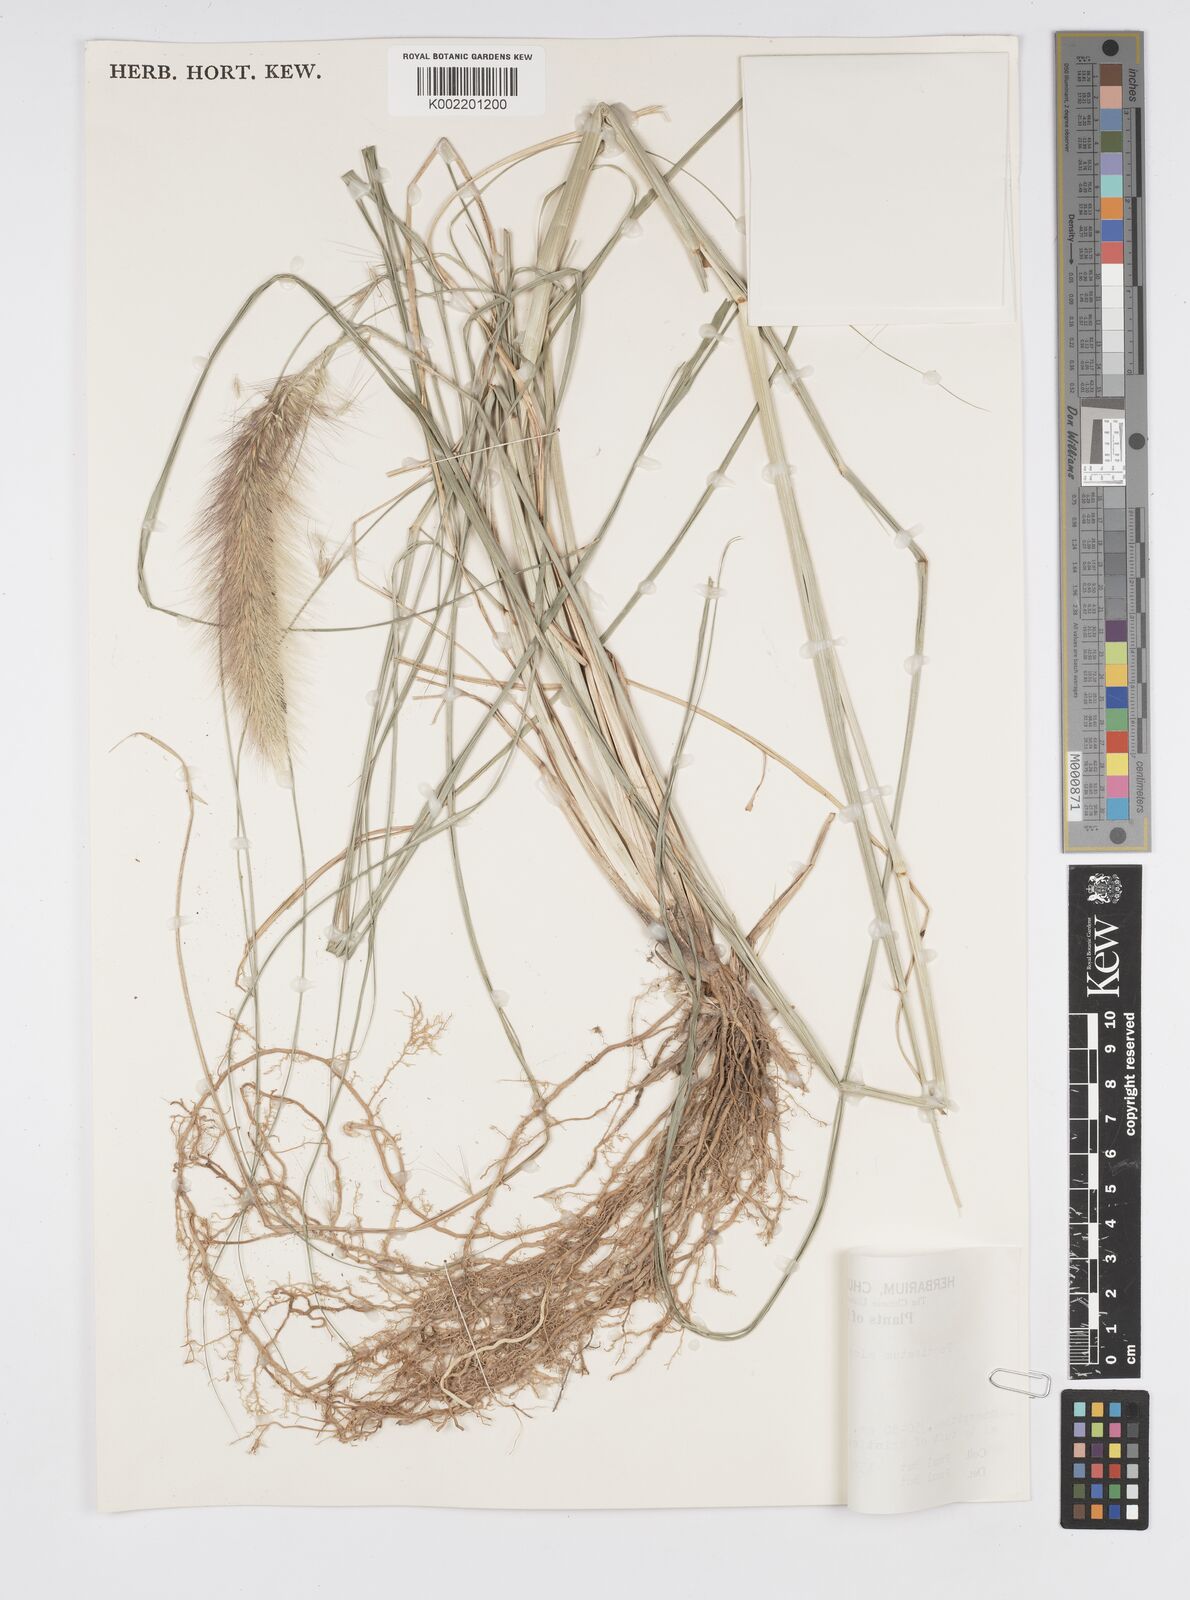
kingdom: Plantae
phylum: Tracheophyta
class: Liliopsida
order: Poales
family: Poaceae
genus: Cenchrus
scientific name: Cenchrus alopecuroides
